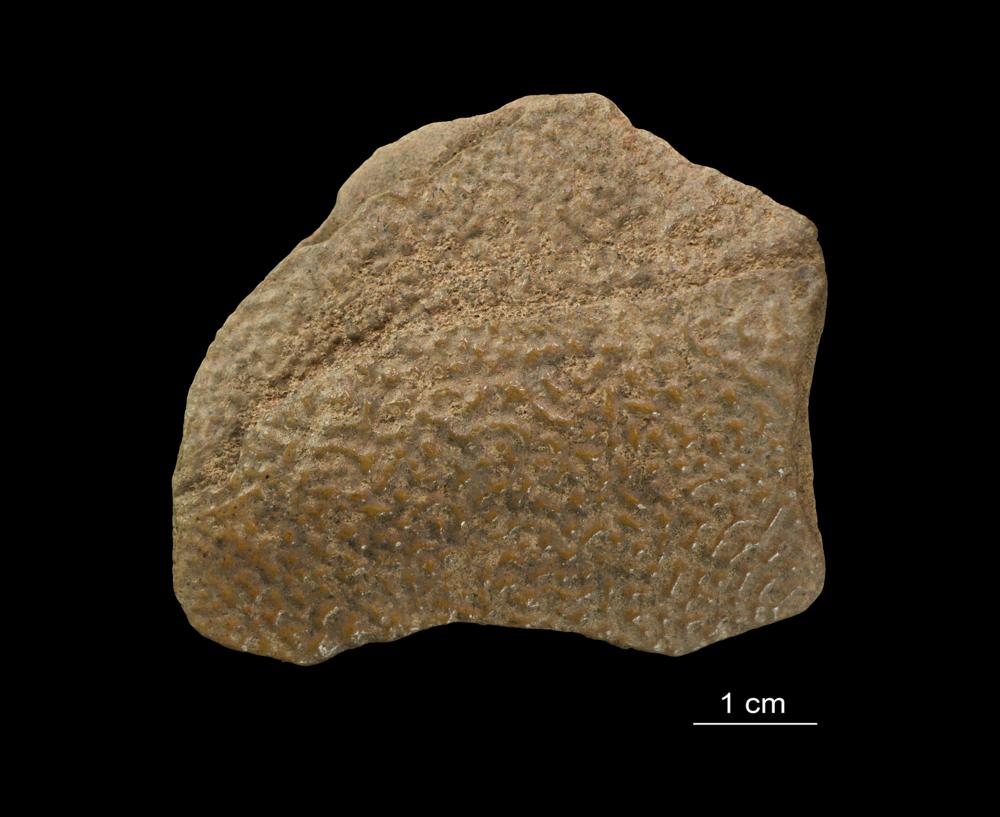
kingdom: Animalia
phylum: Chordata
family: Asterolepididae
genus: Asterolepis
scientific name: Asterolepis ornata
